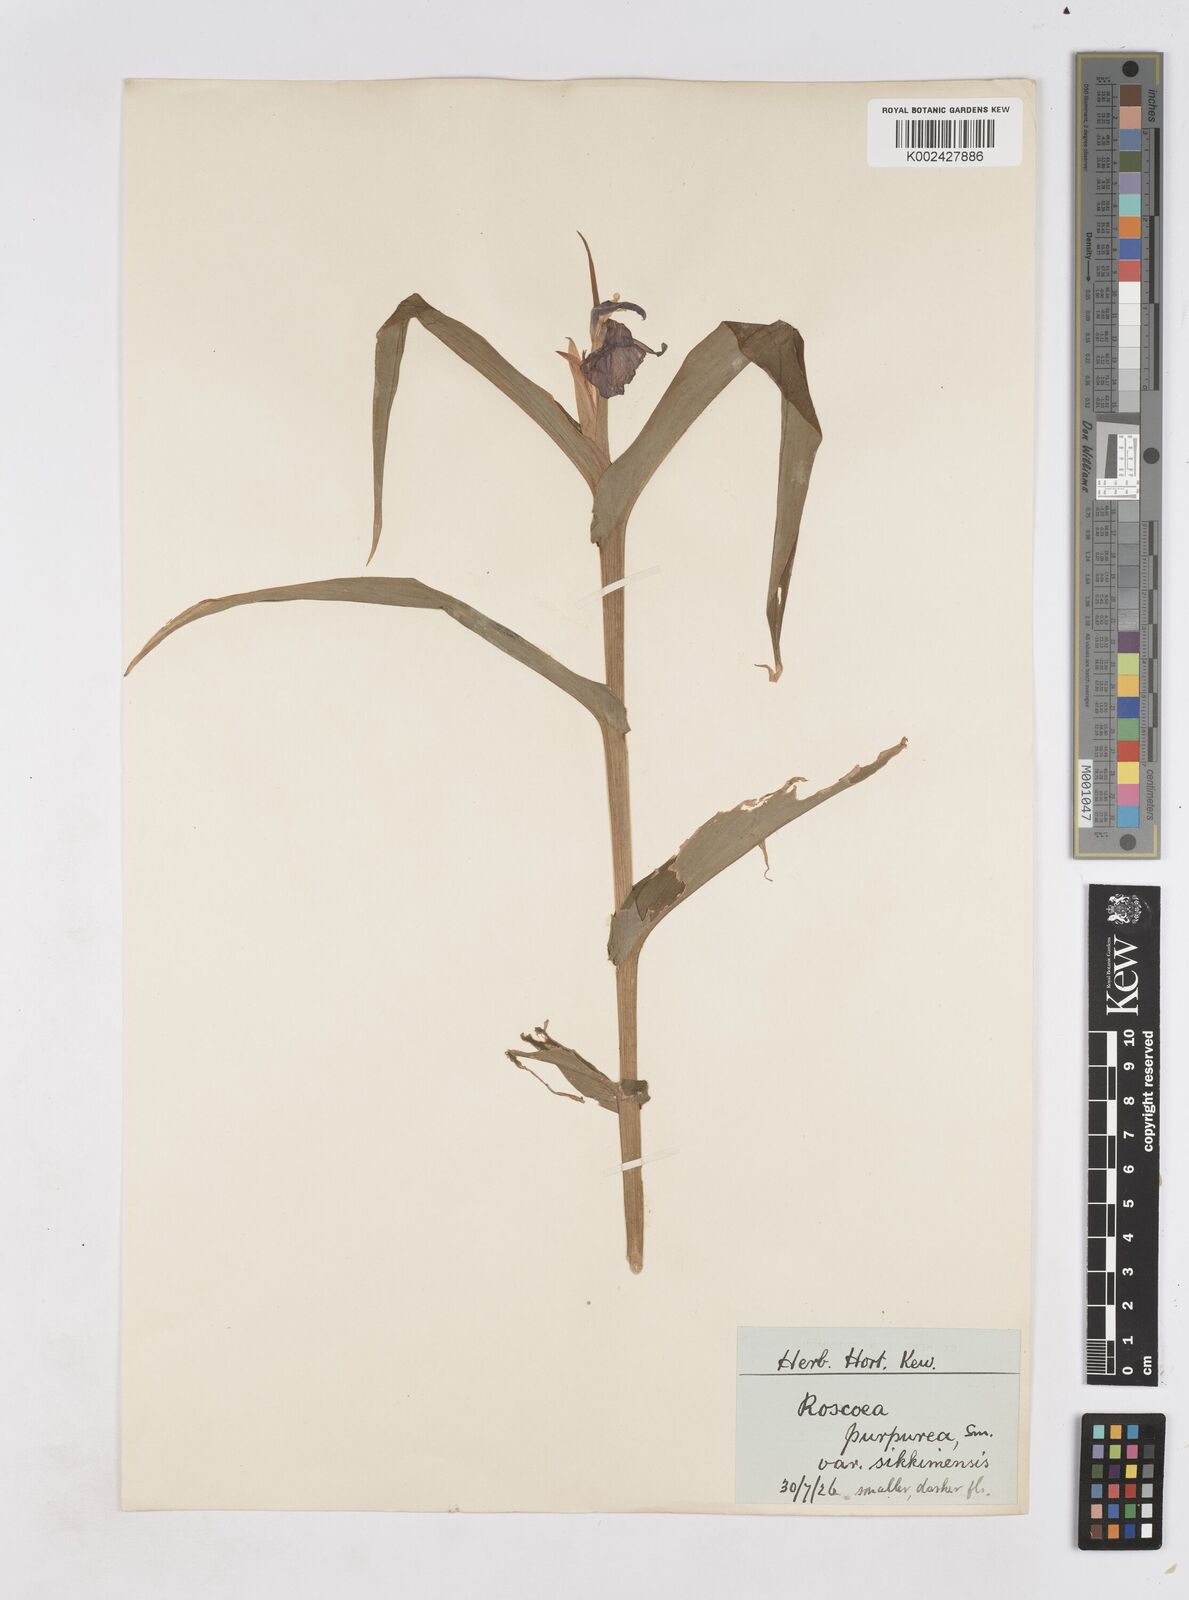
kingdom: Plantae
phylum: Tracheophyta
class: Liliopsida
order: Zingiberales
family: Zingiberaceae
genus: Roscoea
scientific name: Roscoea auriculata
